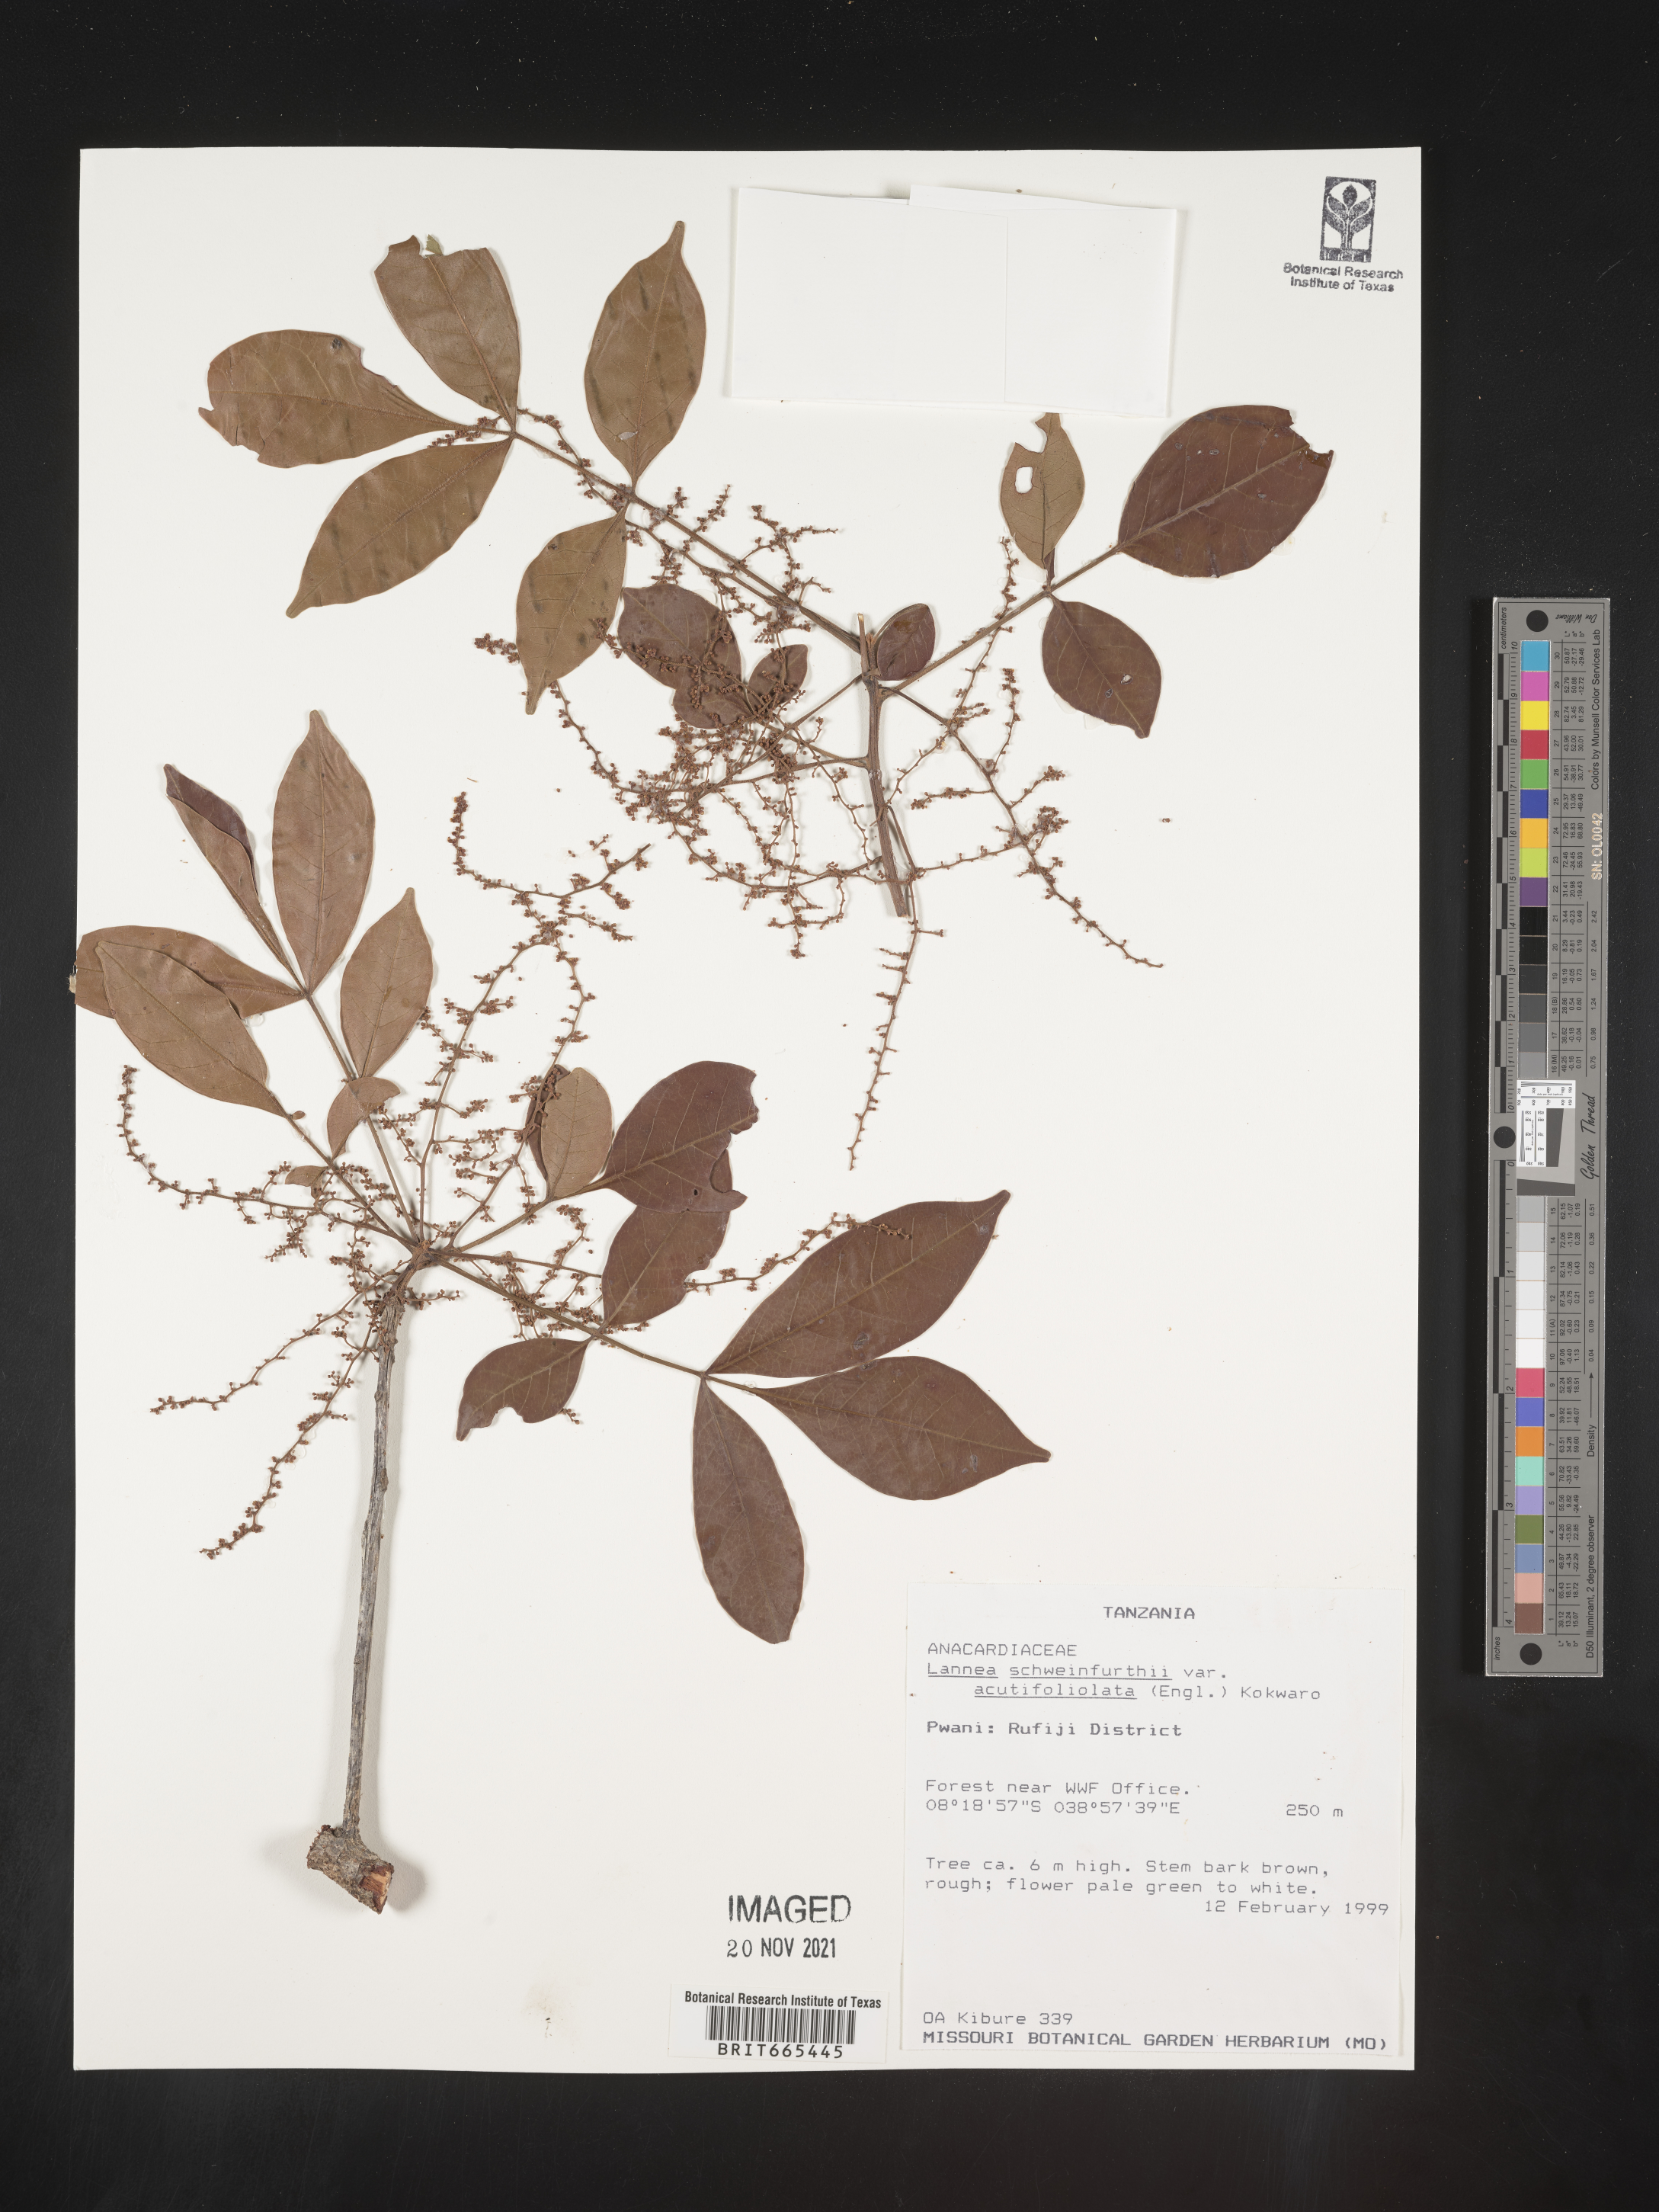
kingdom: Plantae
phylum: Tracheophyta
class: Magnoliopsida
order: Sapindales
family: Anacardiaceae
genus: Lannea
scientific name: Lannea schweinfurthii
